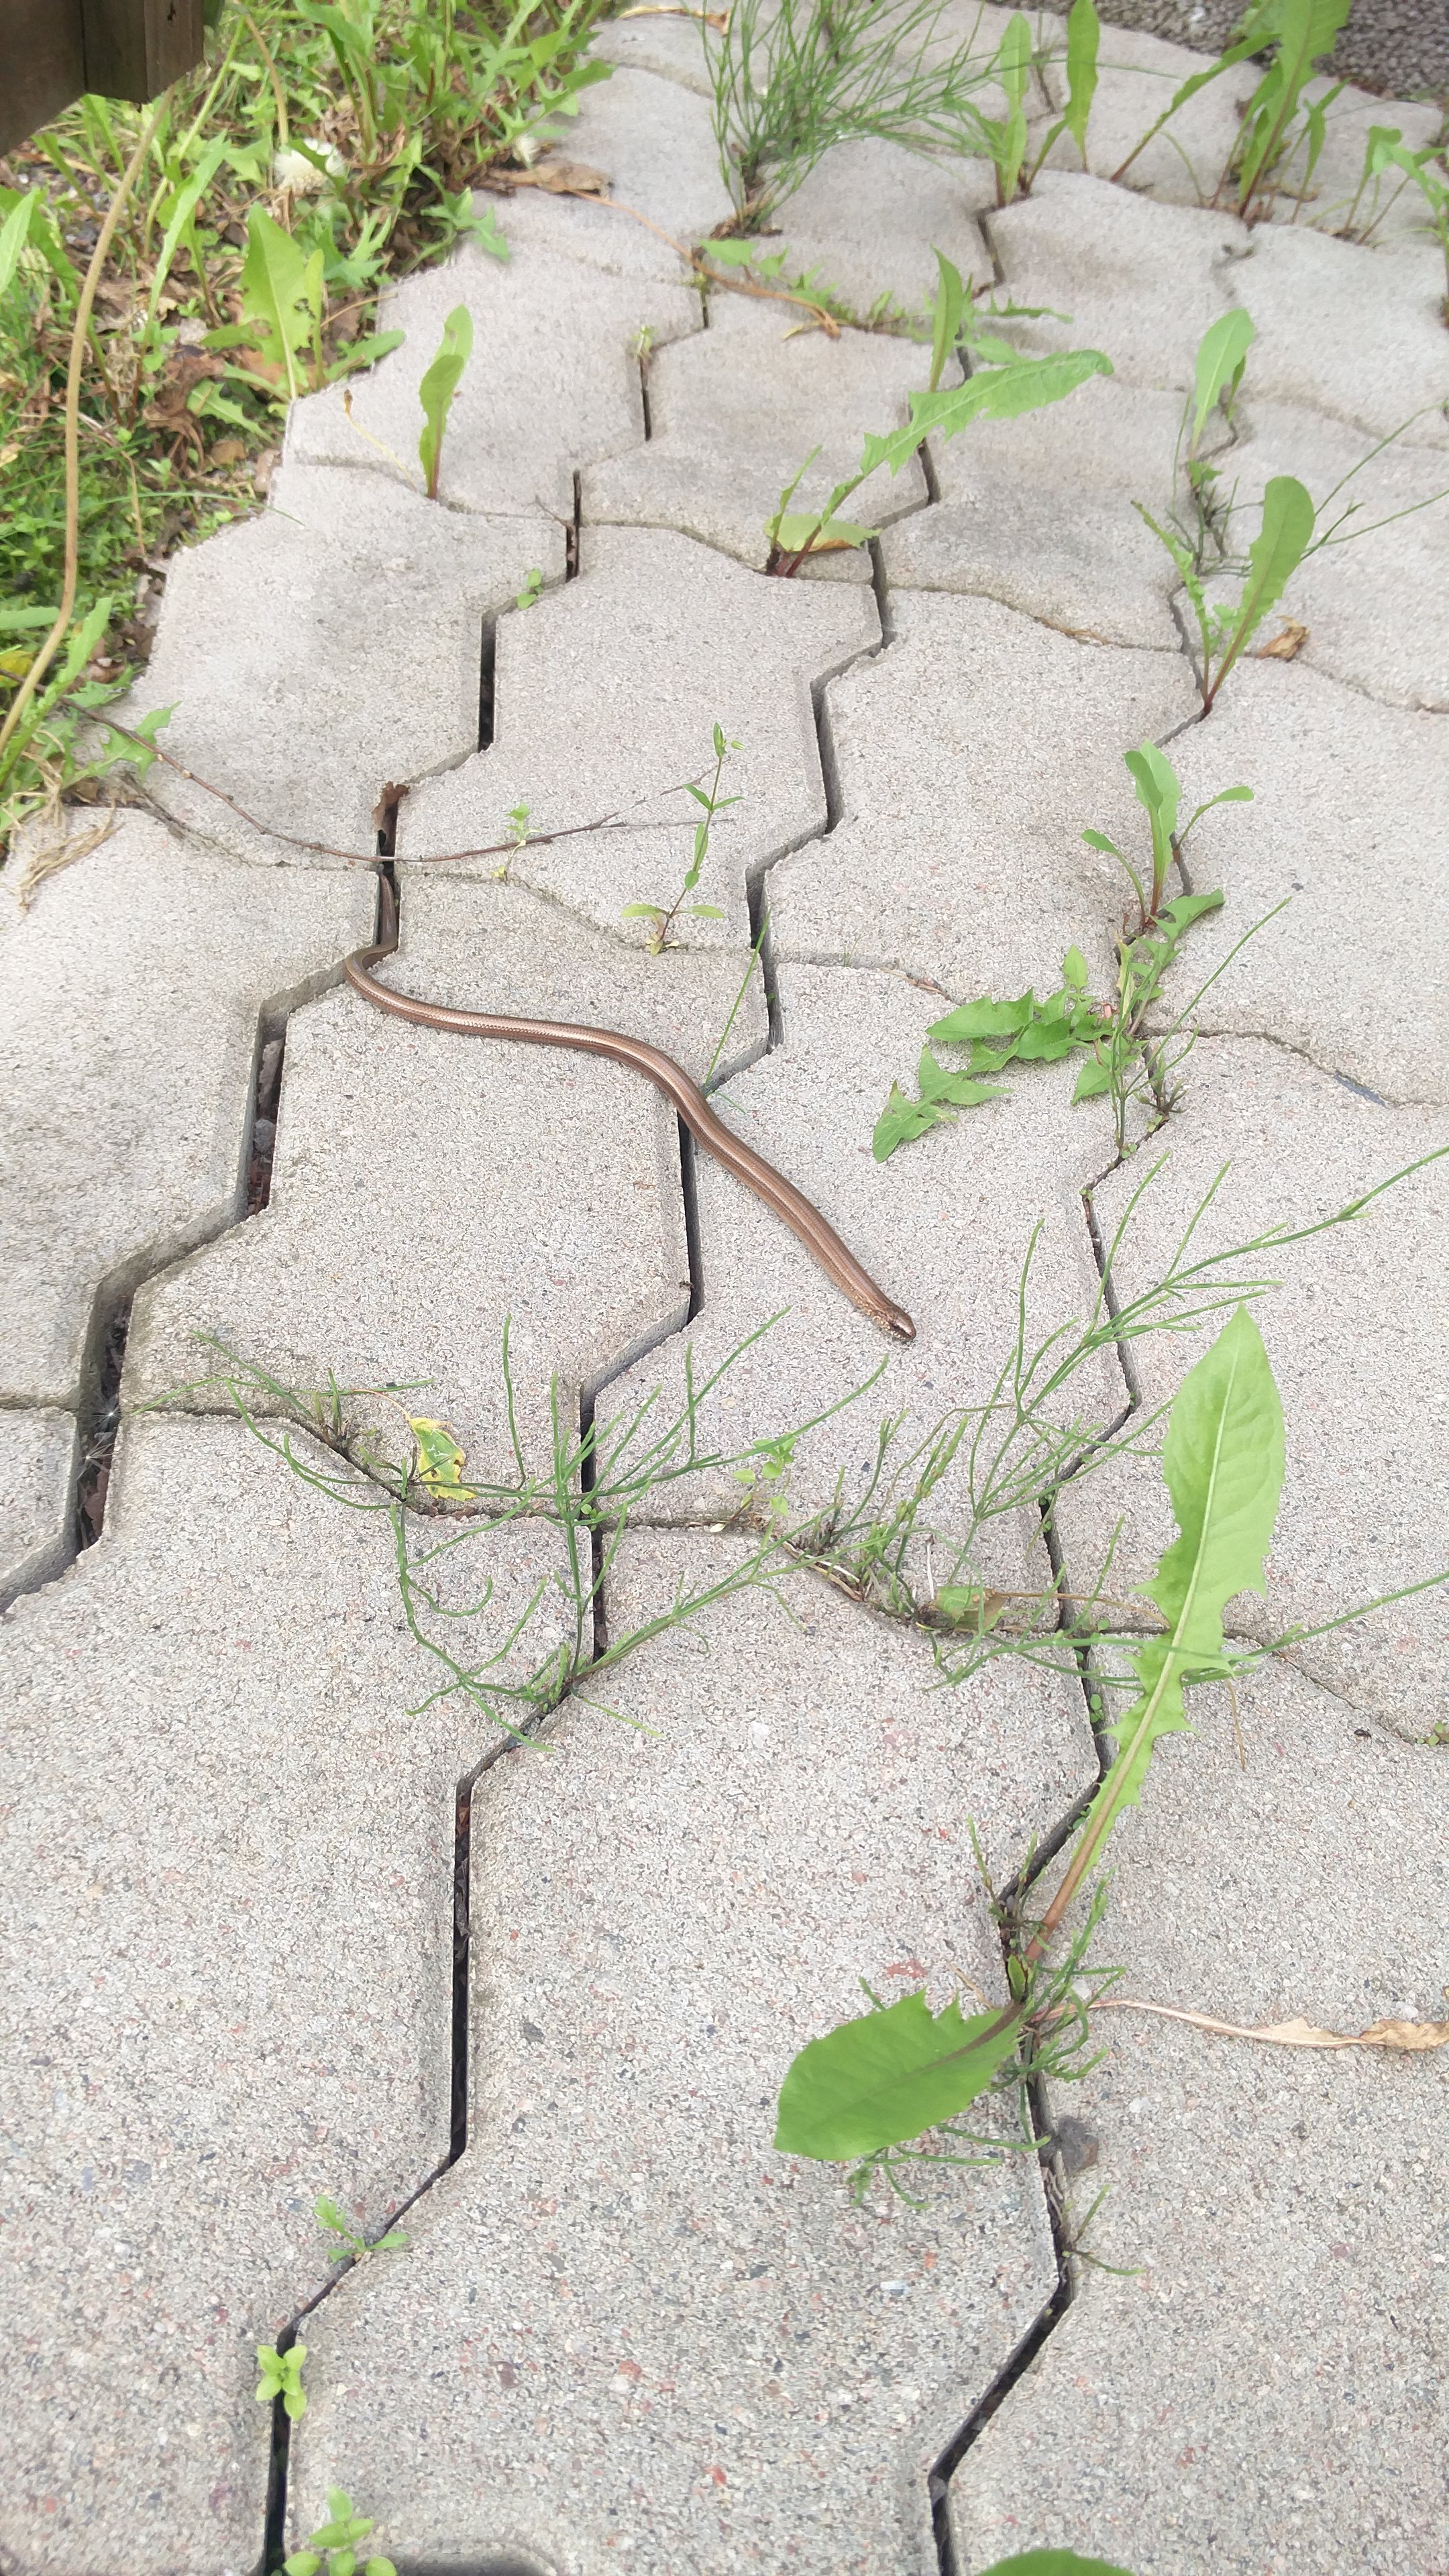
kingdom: Animalia
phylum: Chordata
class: Squamata
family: Anguidae
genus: Anguis
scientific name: Anguis colchica
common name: Slow worm
